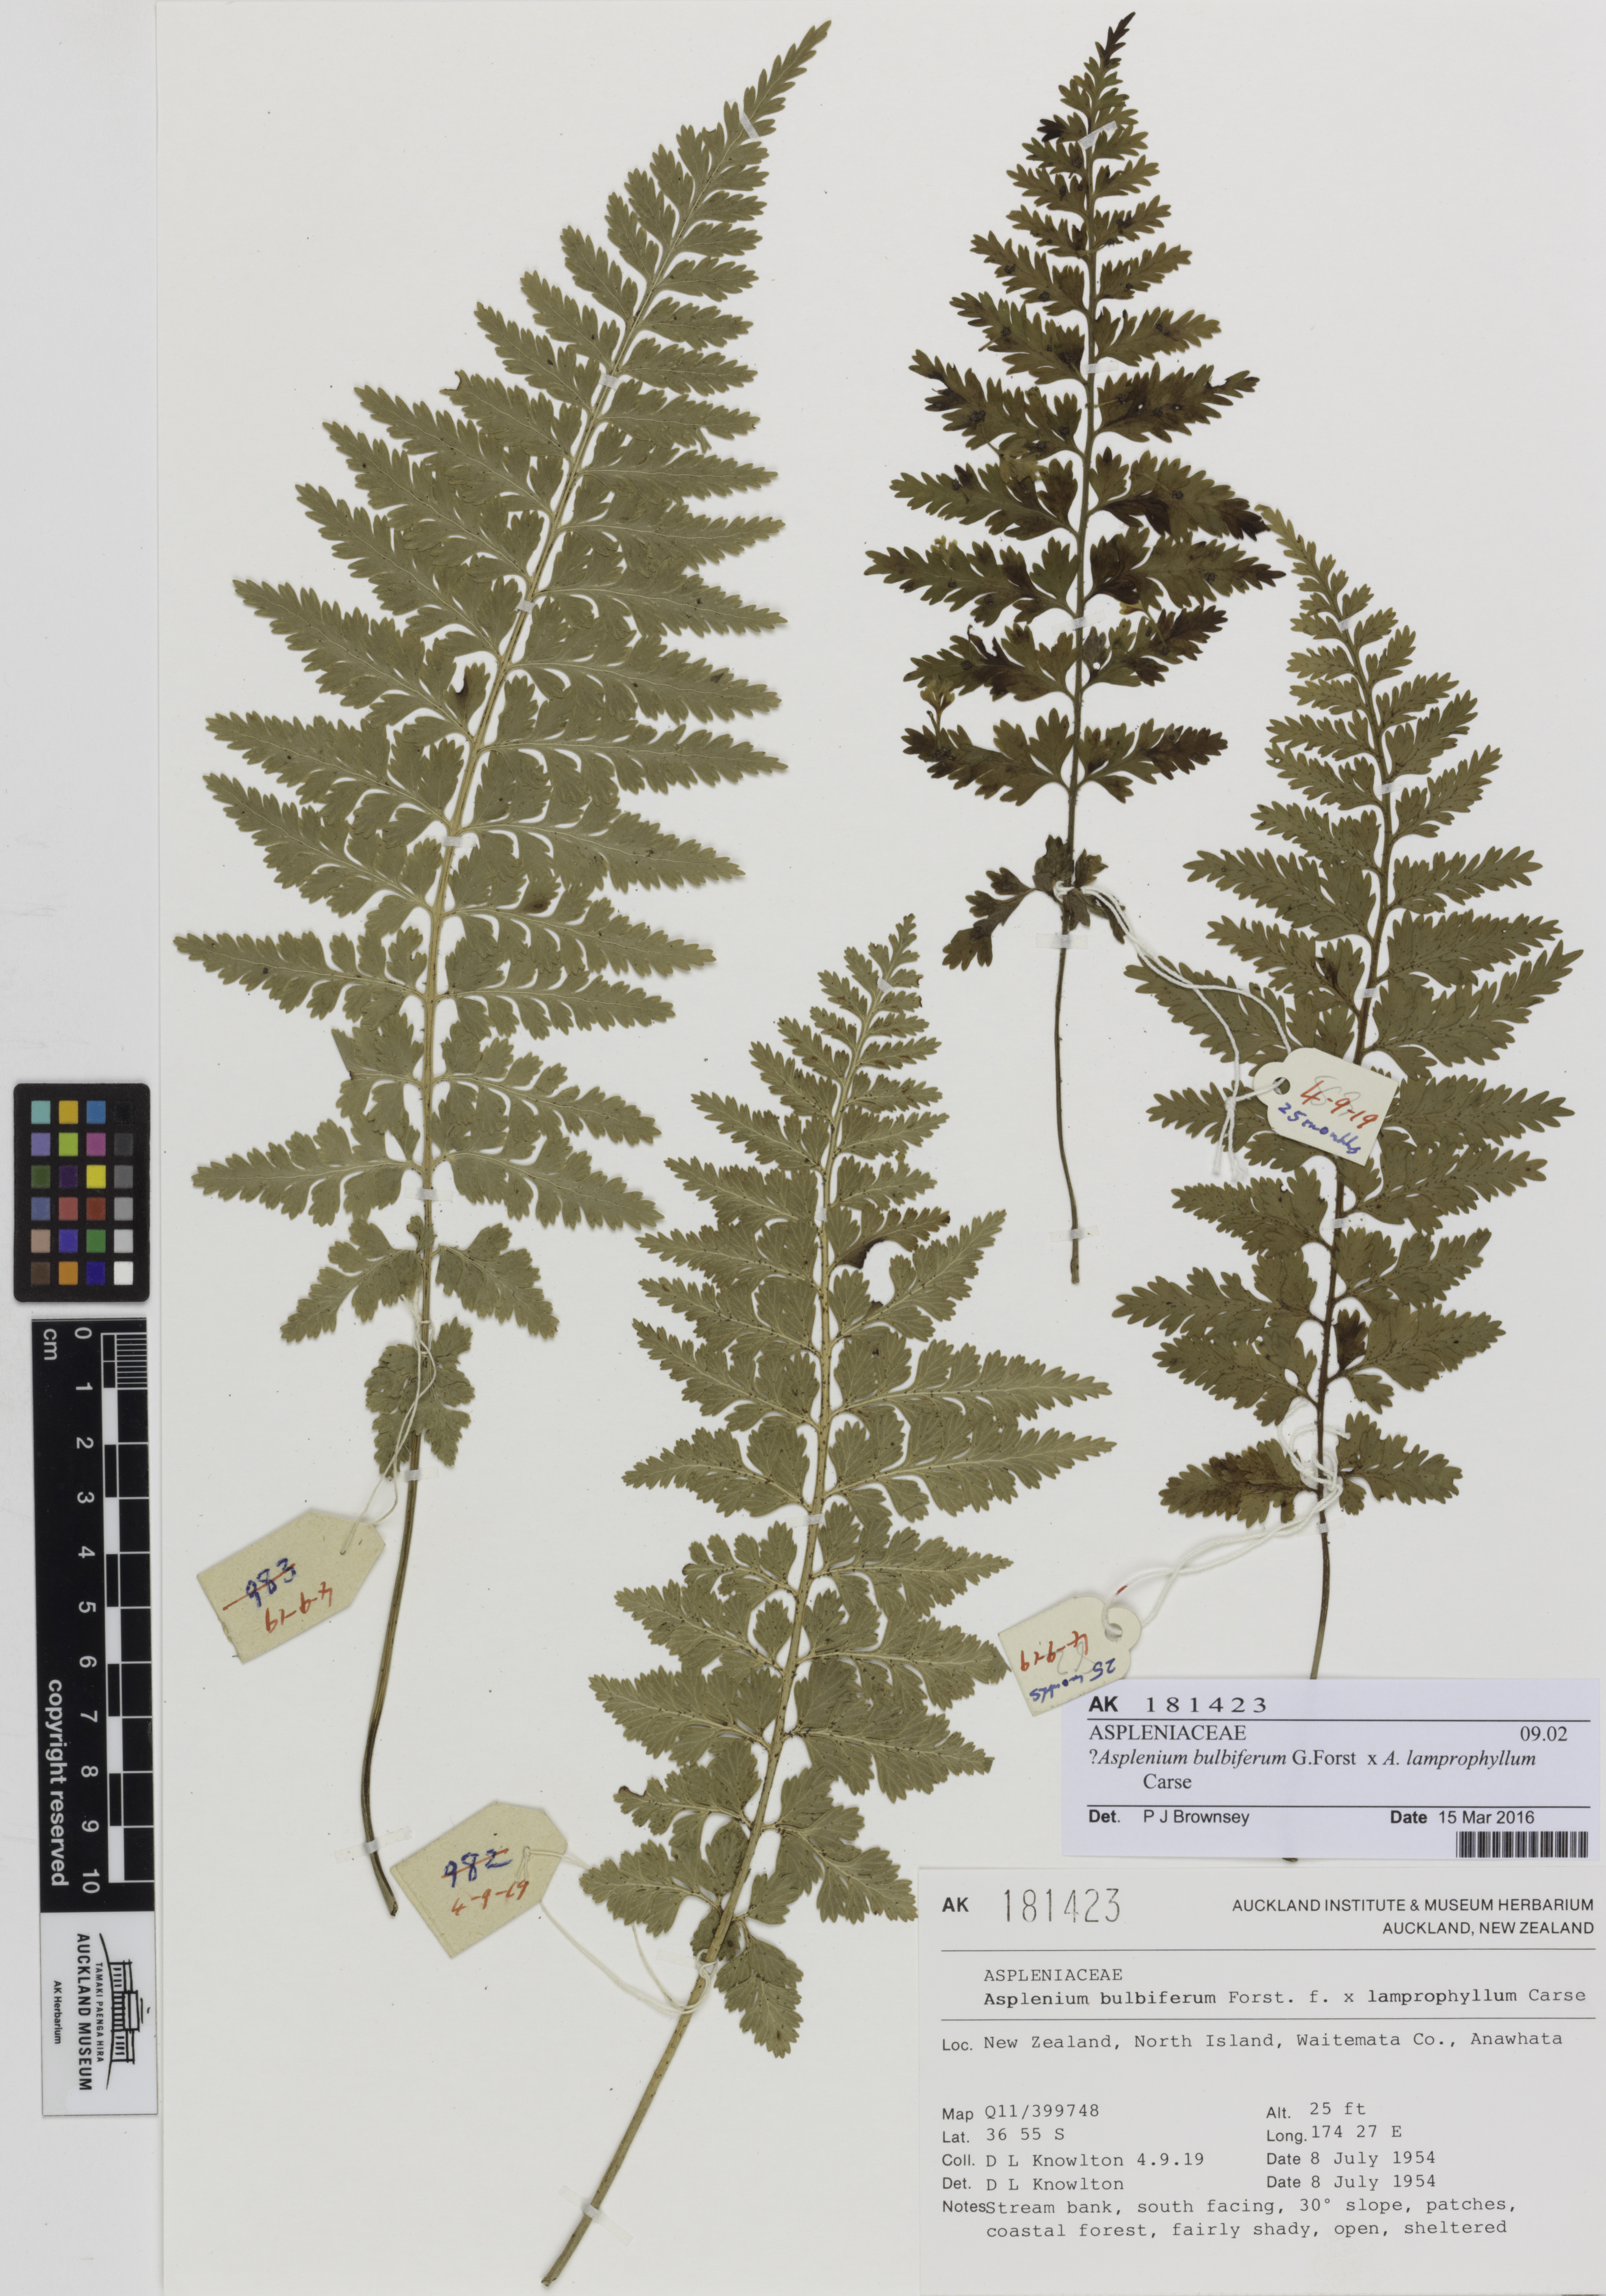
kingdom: Plantae
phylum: Tracheophyta
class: Polypodiopsida
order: Polypodiales
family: Aspleniaceae
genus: Asplenium
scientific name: Asplenium
